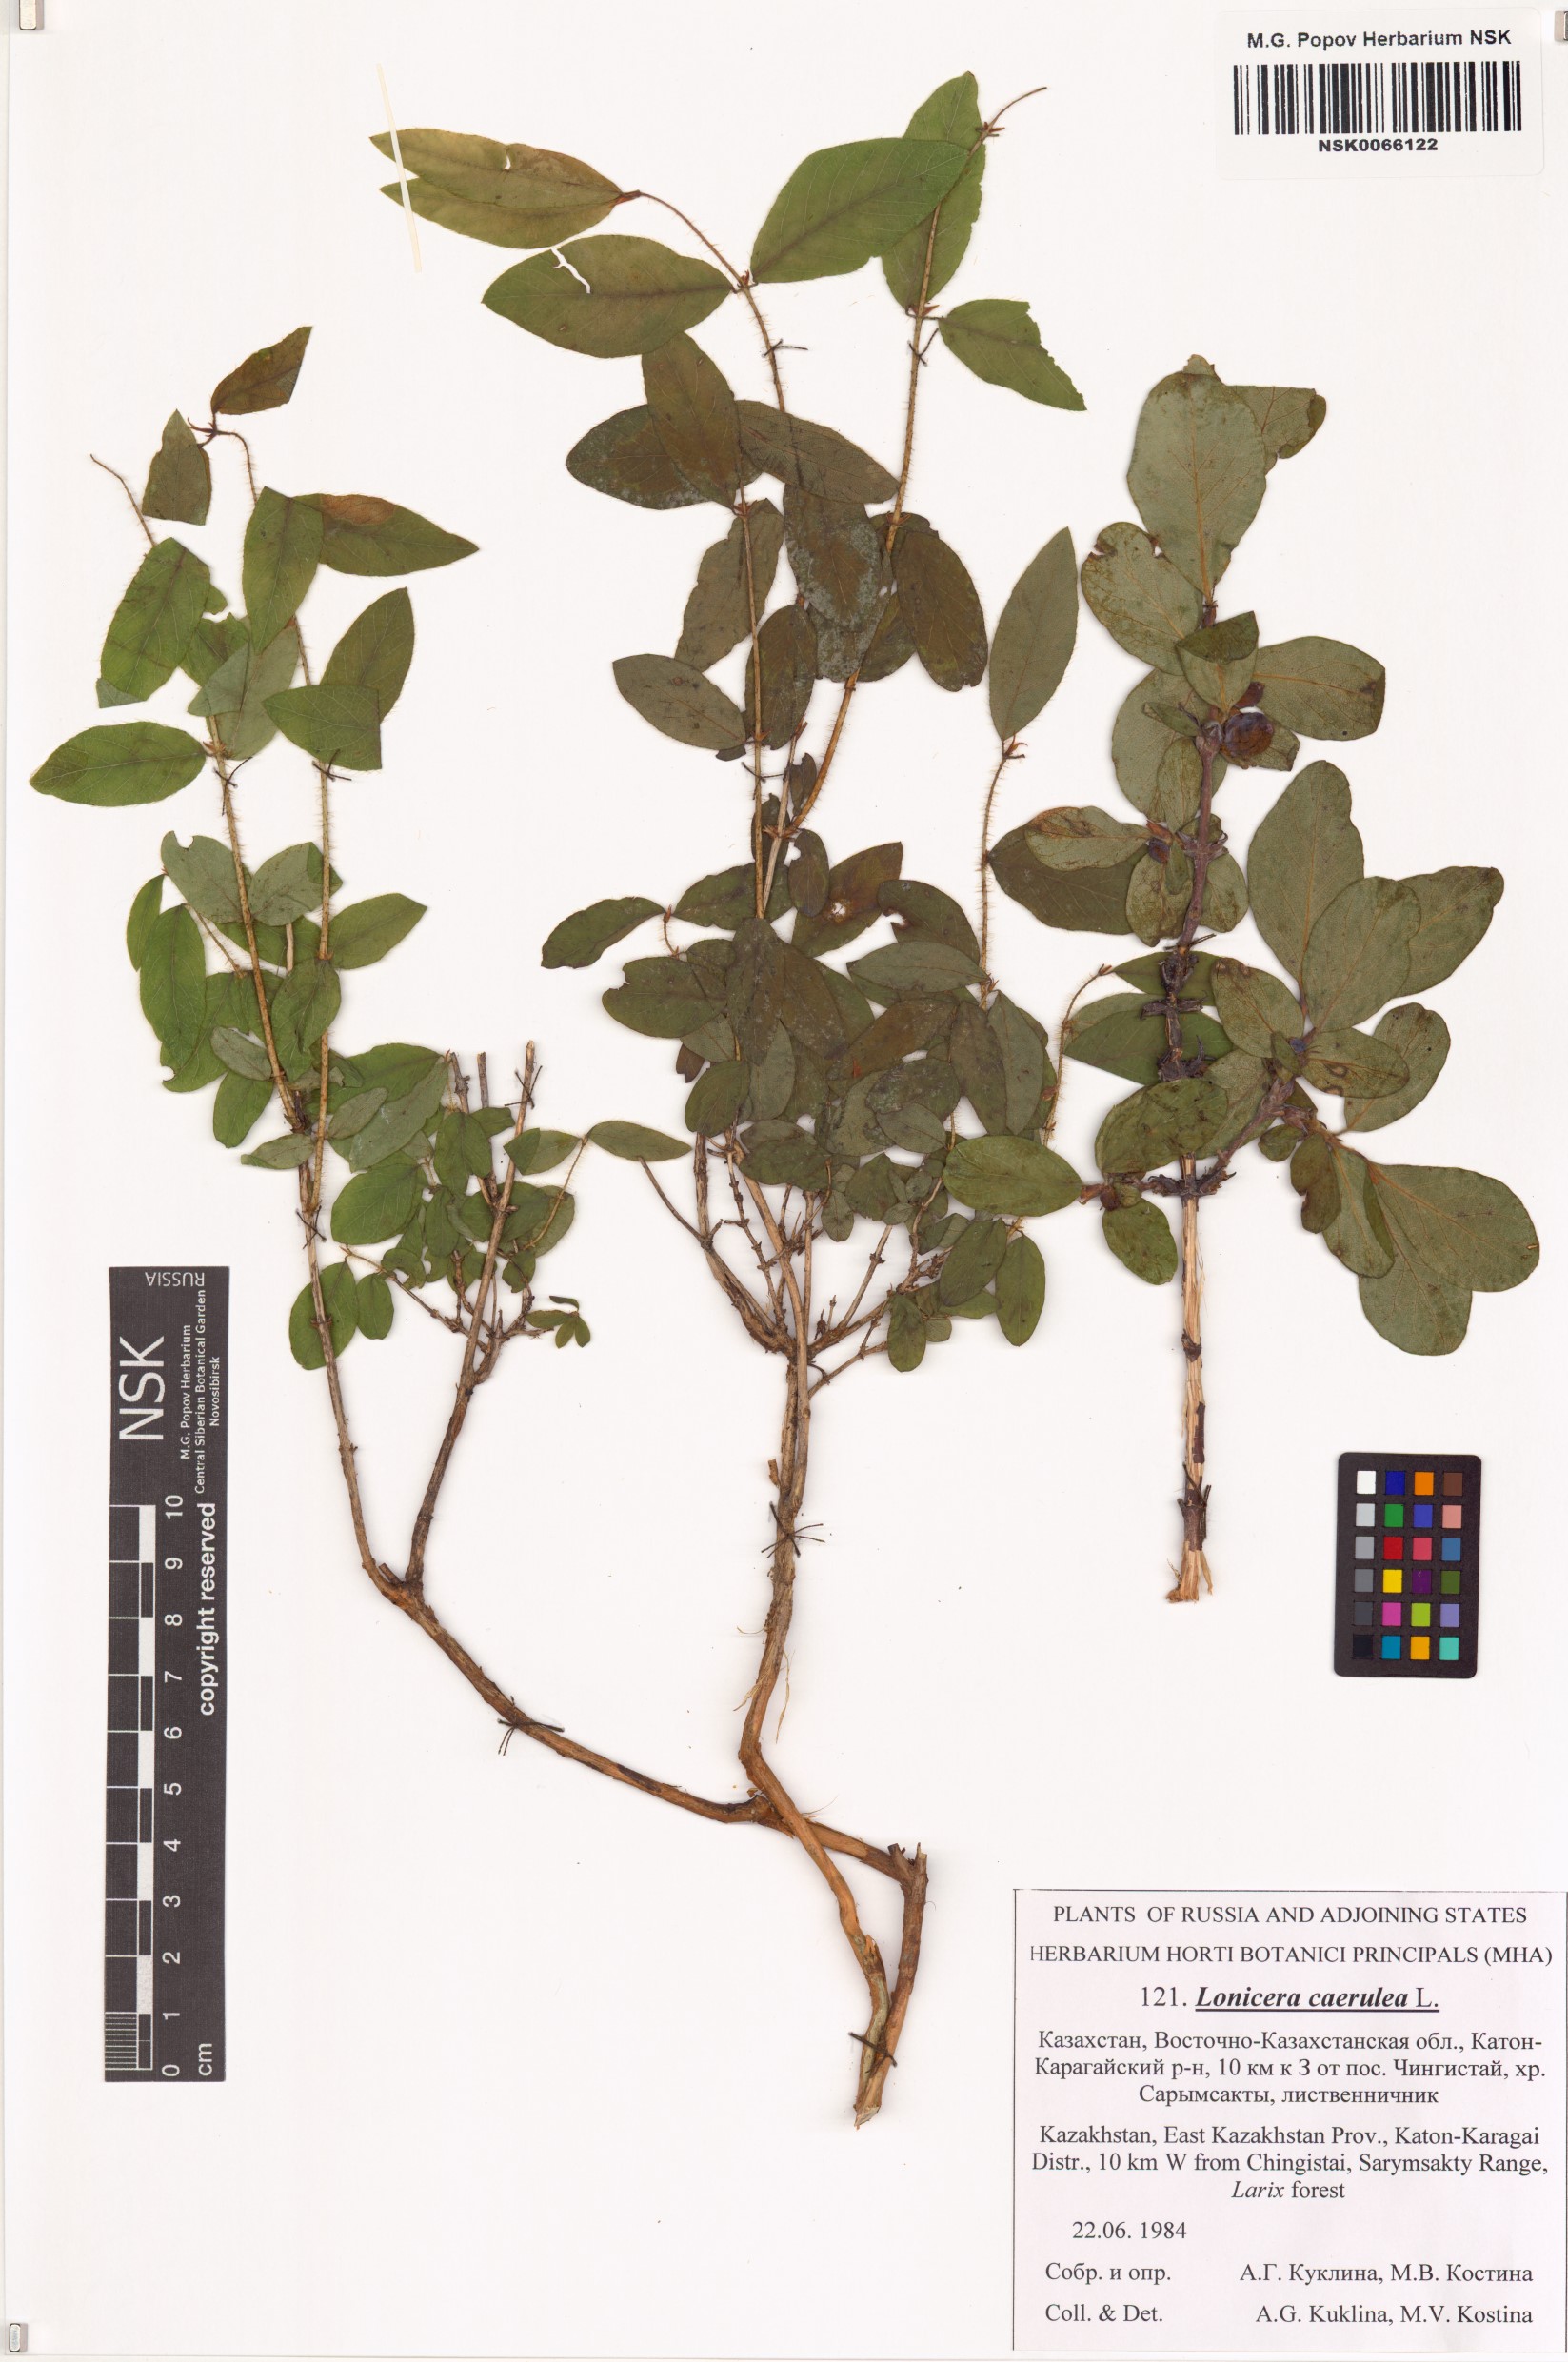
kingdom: Plantae
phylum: Tracheophyta
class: Magnoliopsida
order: Dipsacales
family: Caprifoliaceae
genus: Lonicera
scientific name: Lonicera caerulea
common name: Blue honeysuckle
